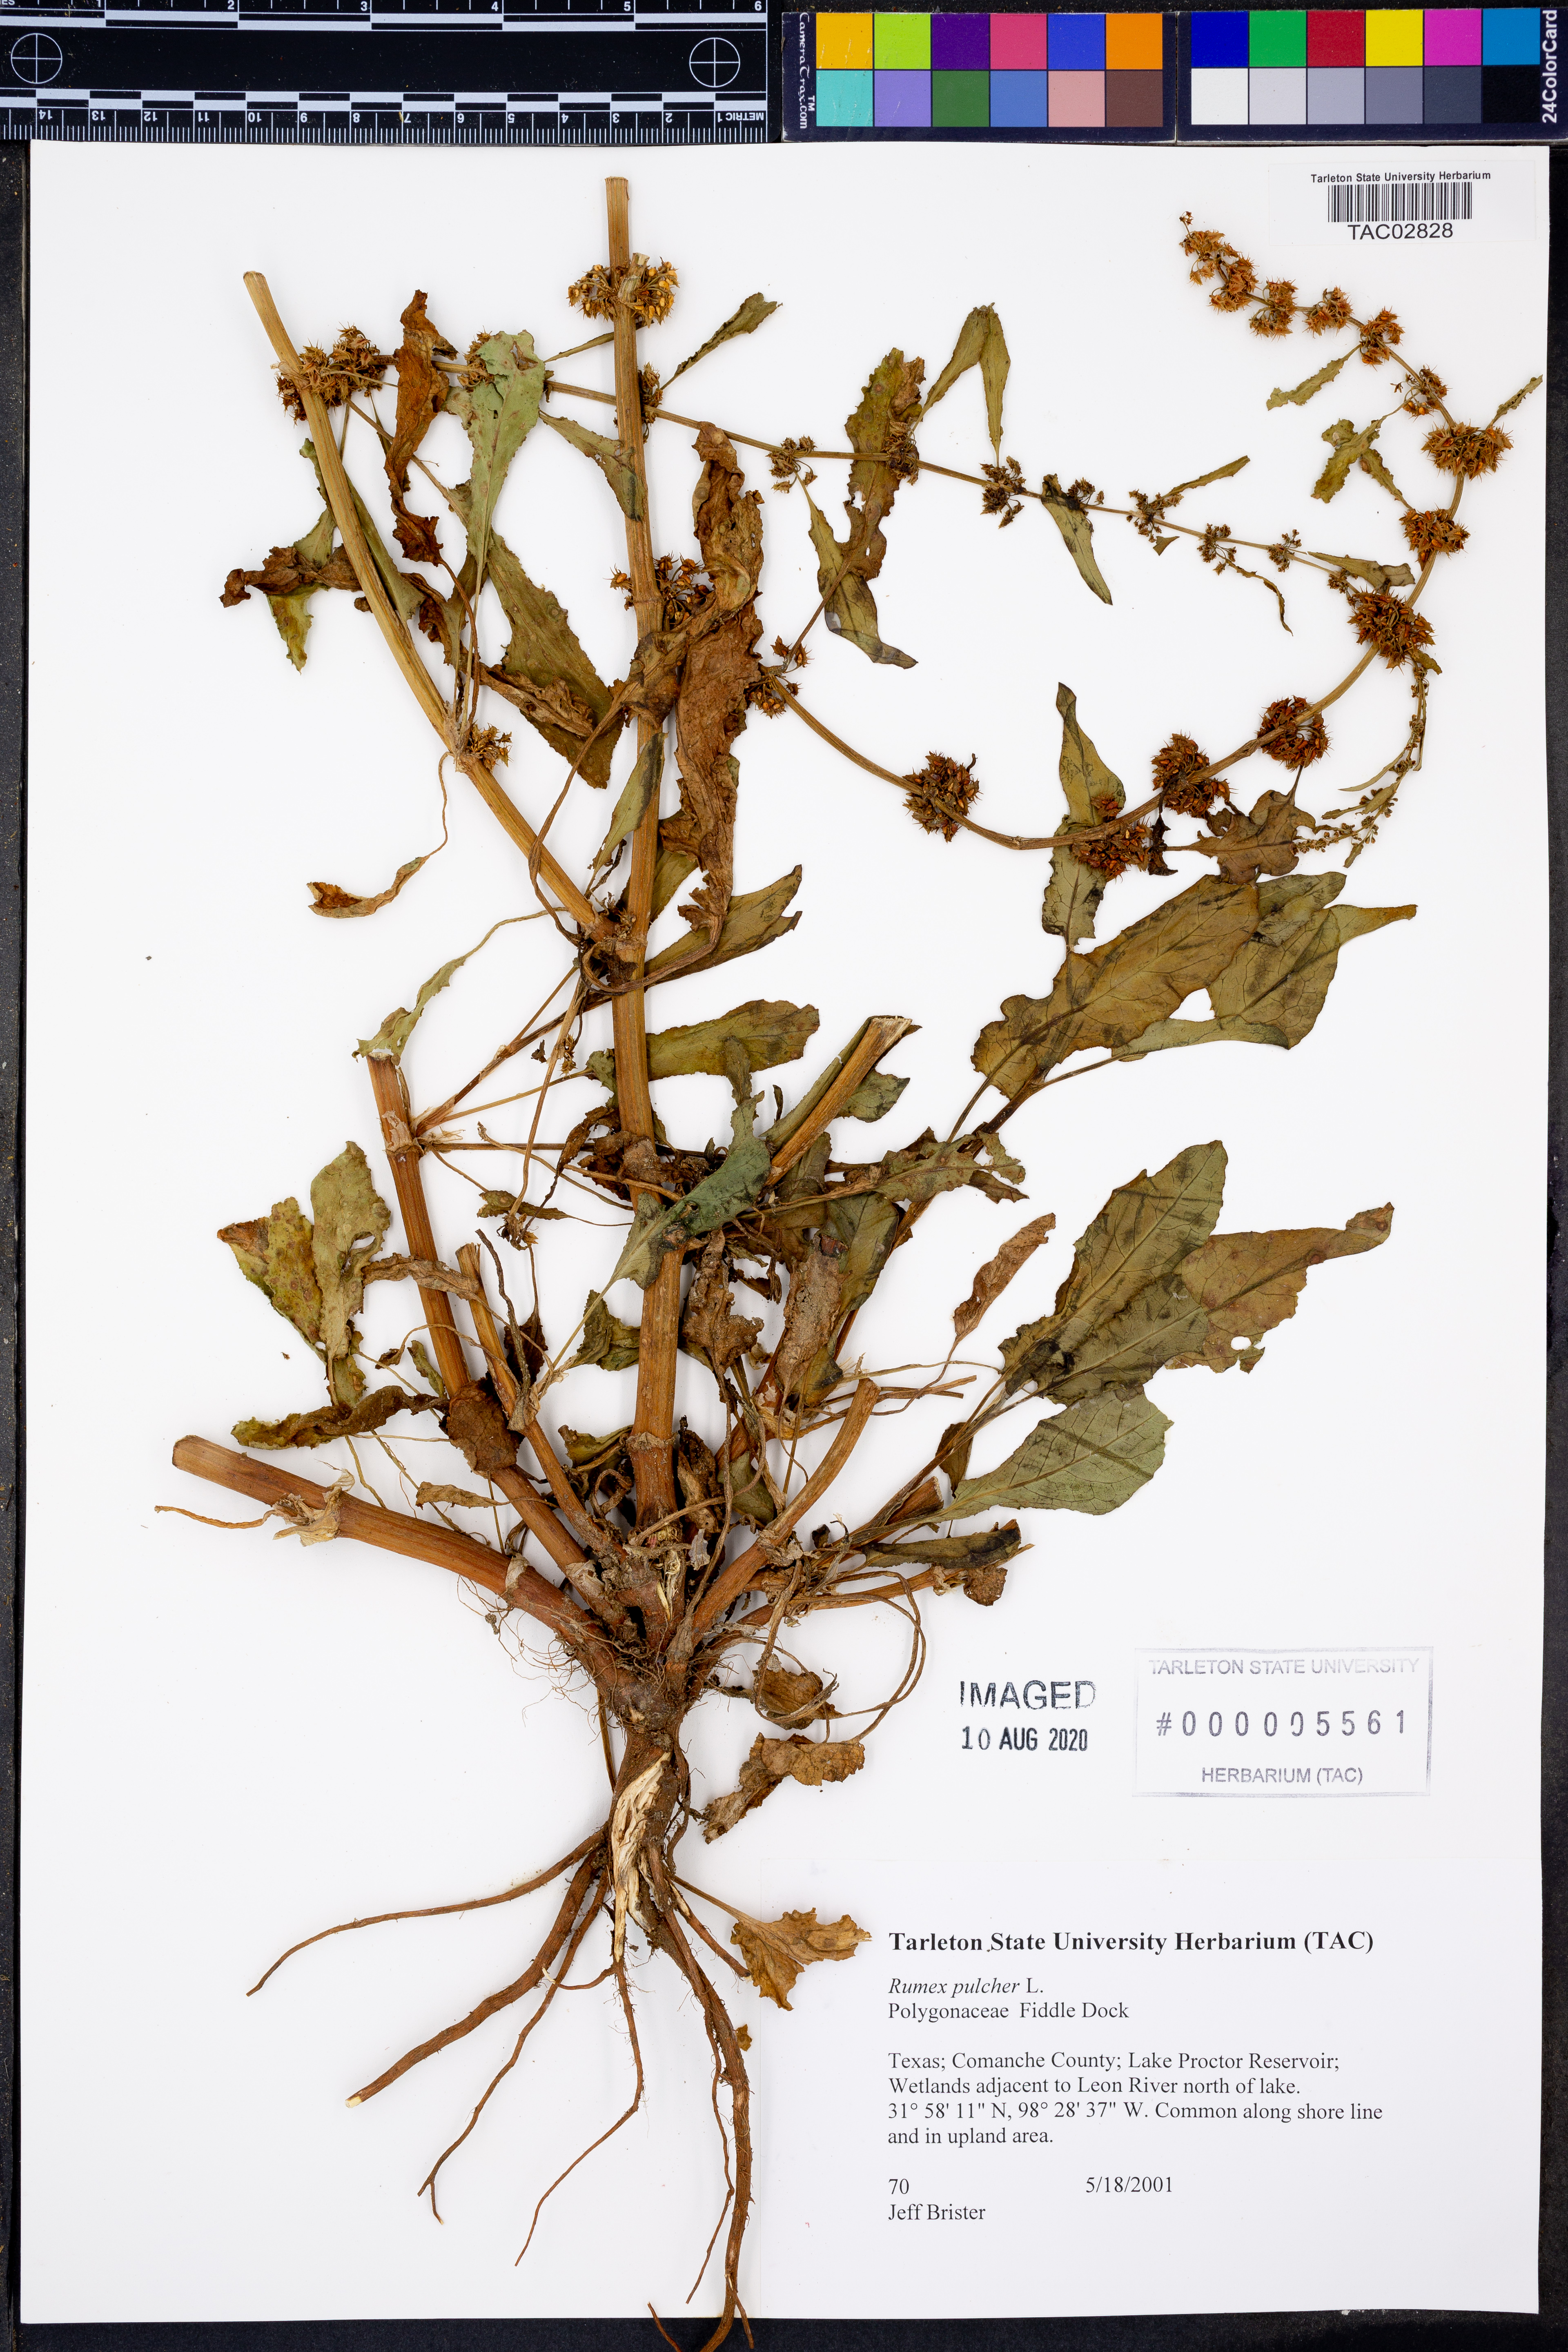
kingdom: Plantae
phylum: Tracheophyta
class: Magnoliopsida
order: Caryophyllales
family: Polygonaceae
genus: Rumex
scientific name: Rumex pulcher
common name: Fiddle dock
